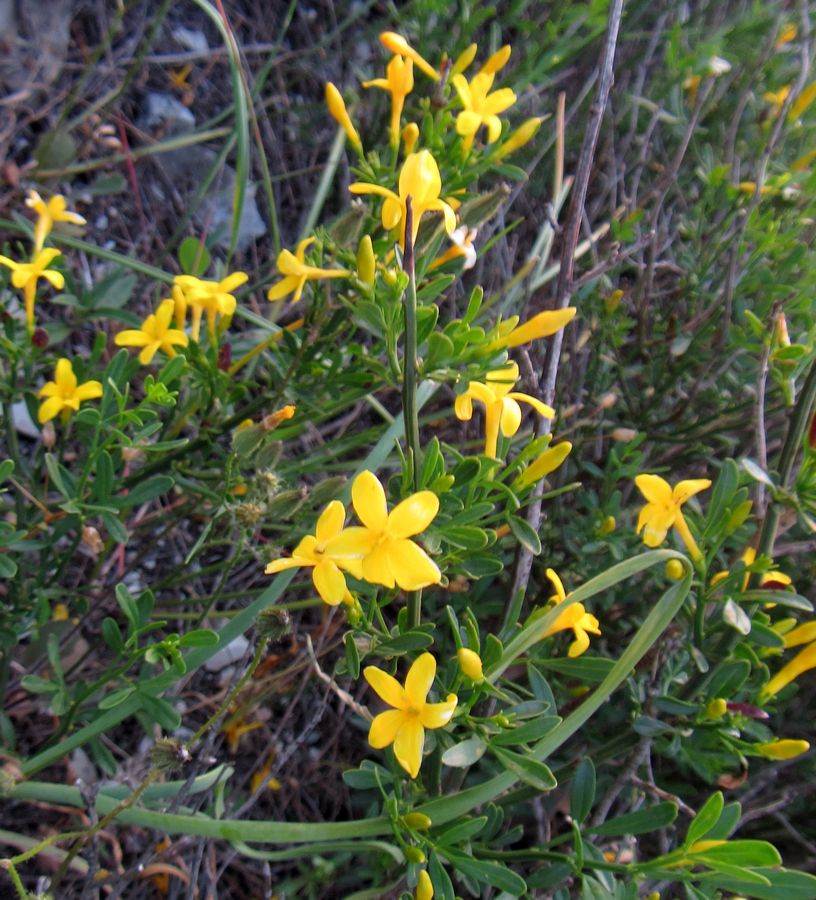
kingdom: Plantae
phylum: Tracheophyta
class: Magnoliopsida
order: Lamiales
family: Oleaceae
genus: Chrysojasminum
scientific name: Chrysojasminum fruticans
